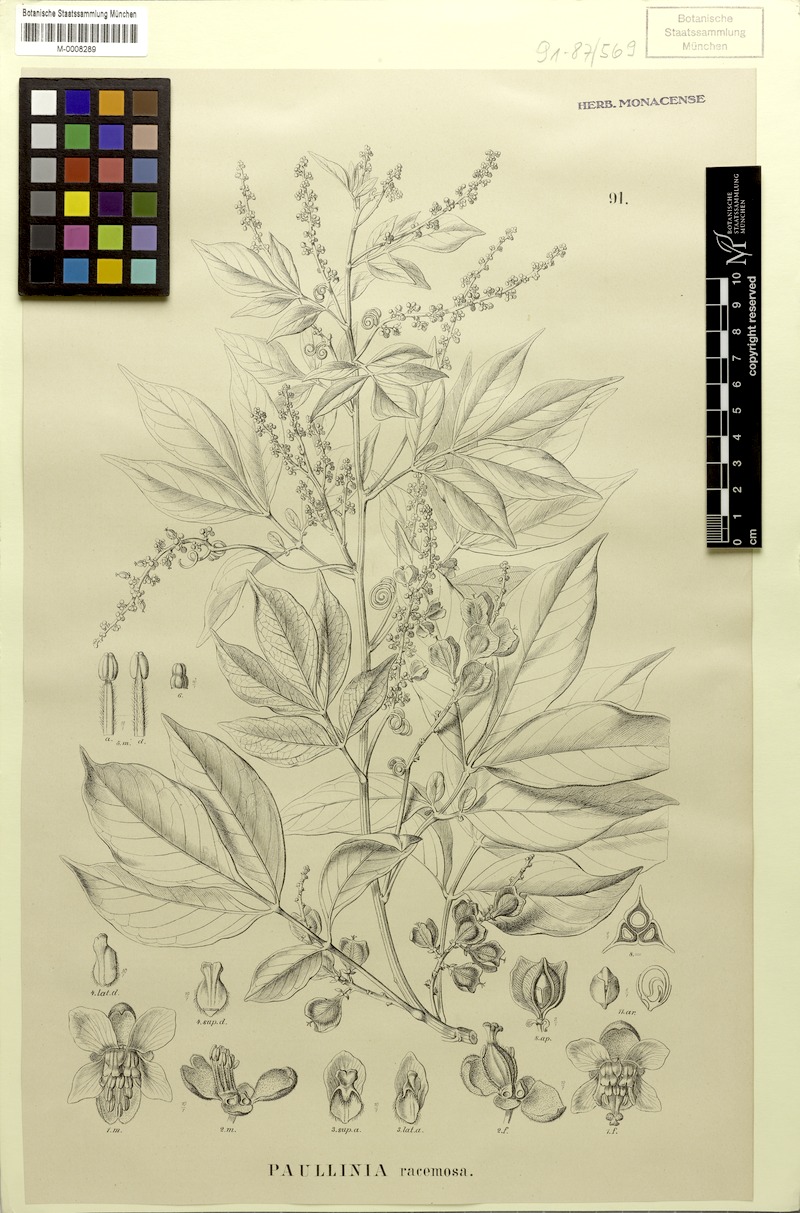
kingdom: Plantae
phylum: Tracheophyta
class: Magnoliopsida
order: Sapindales
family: Sapindaceae
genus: Paullinia
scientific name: Paullinia racemosa
